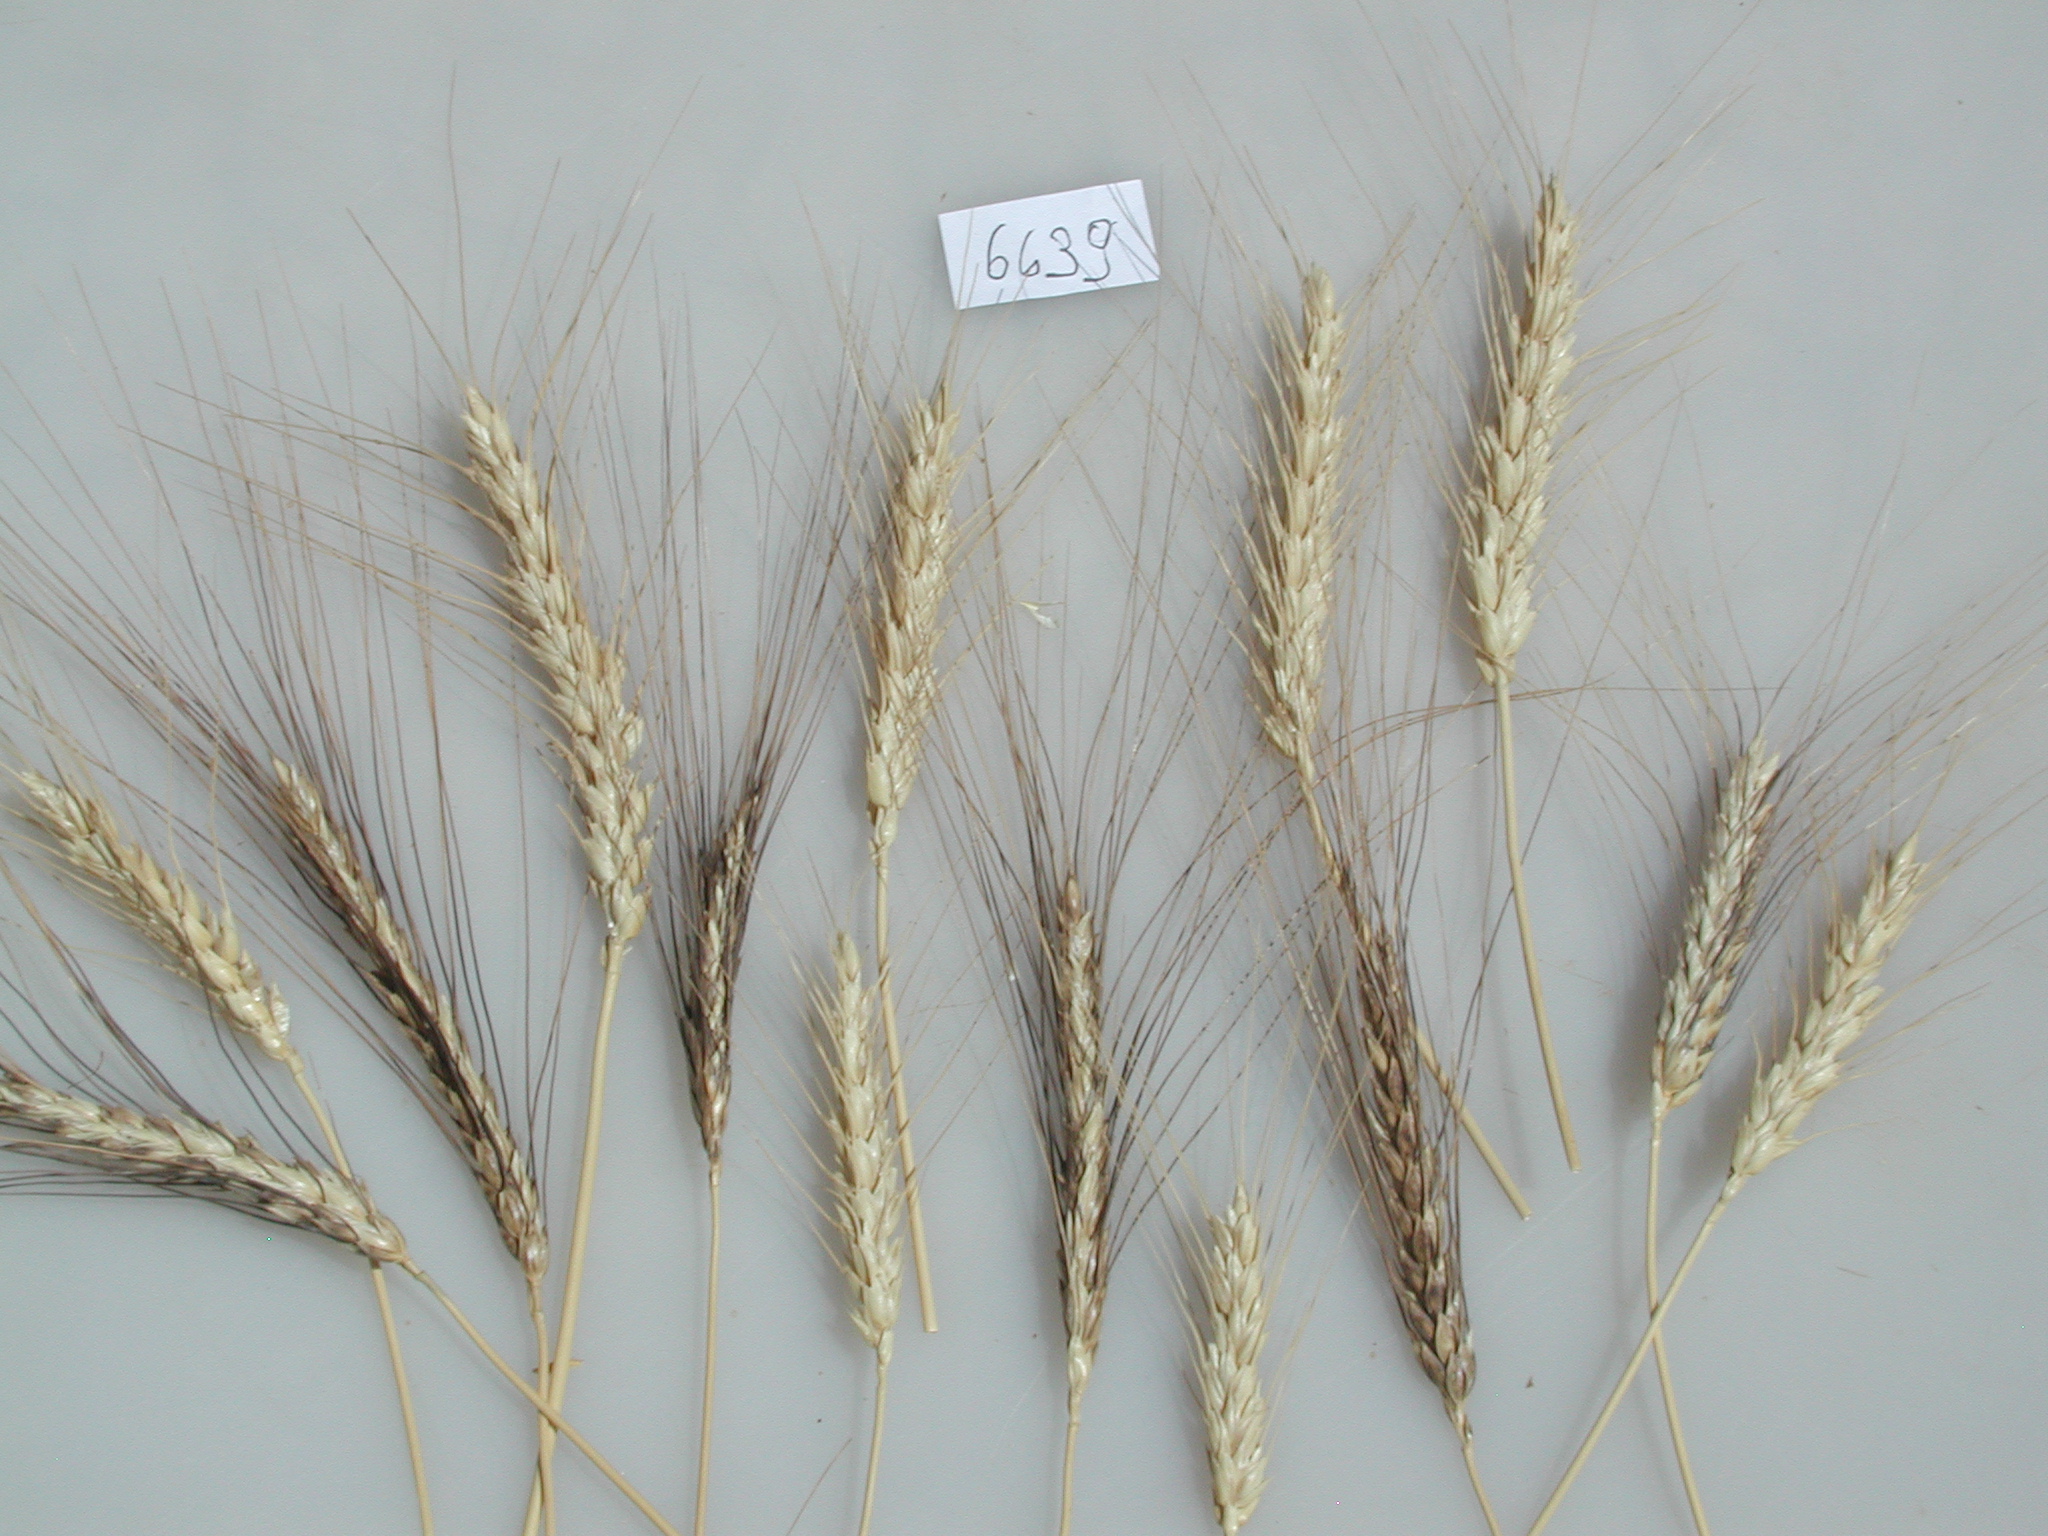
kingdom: Plantae
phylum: Tracheophyta
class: Liliopsida
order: Poales
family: Poaceae
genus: Triticum
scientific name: Triticum aestivum
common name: Wheat
